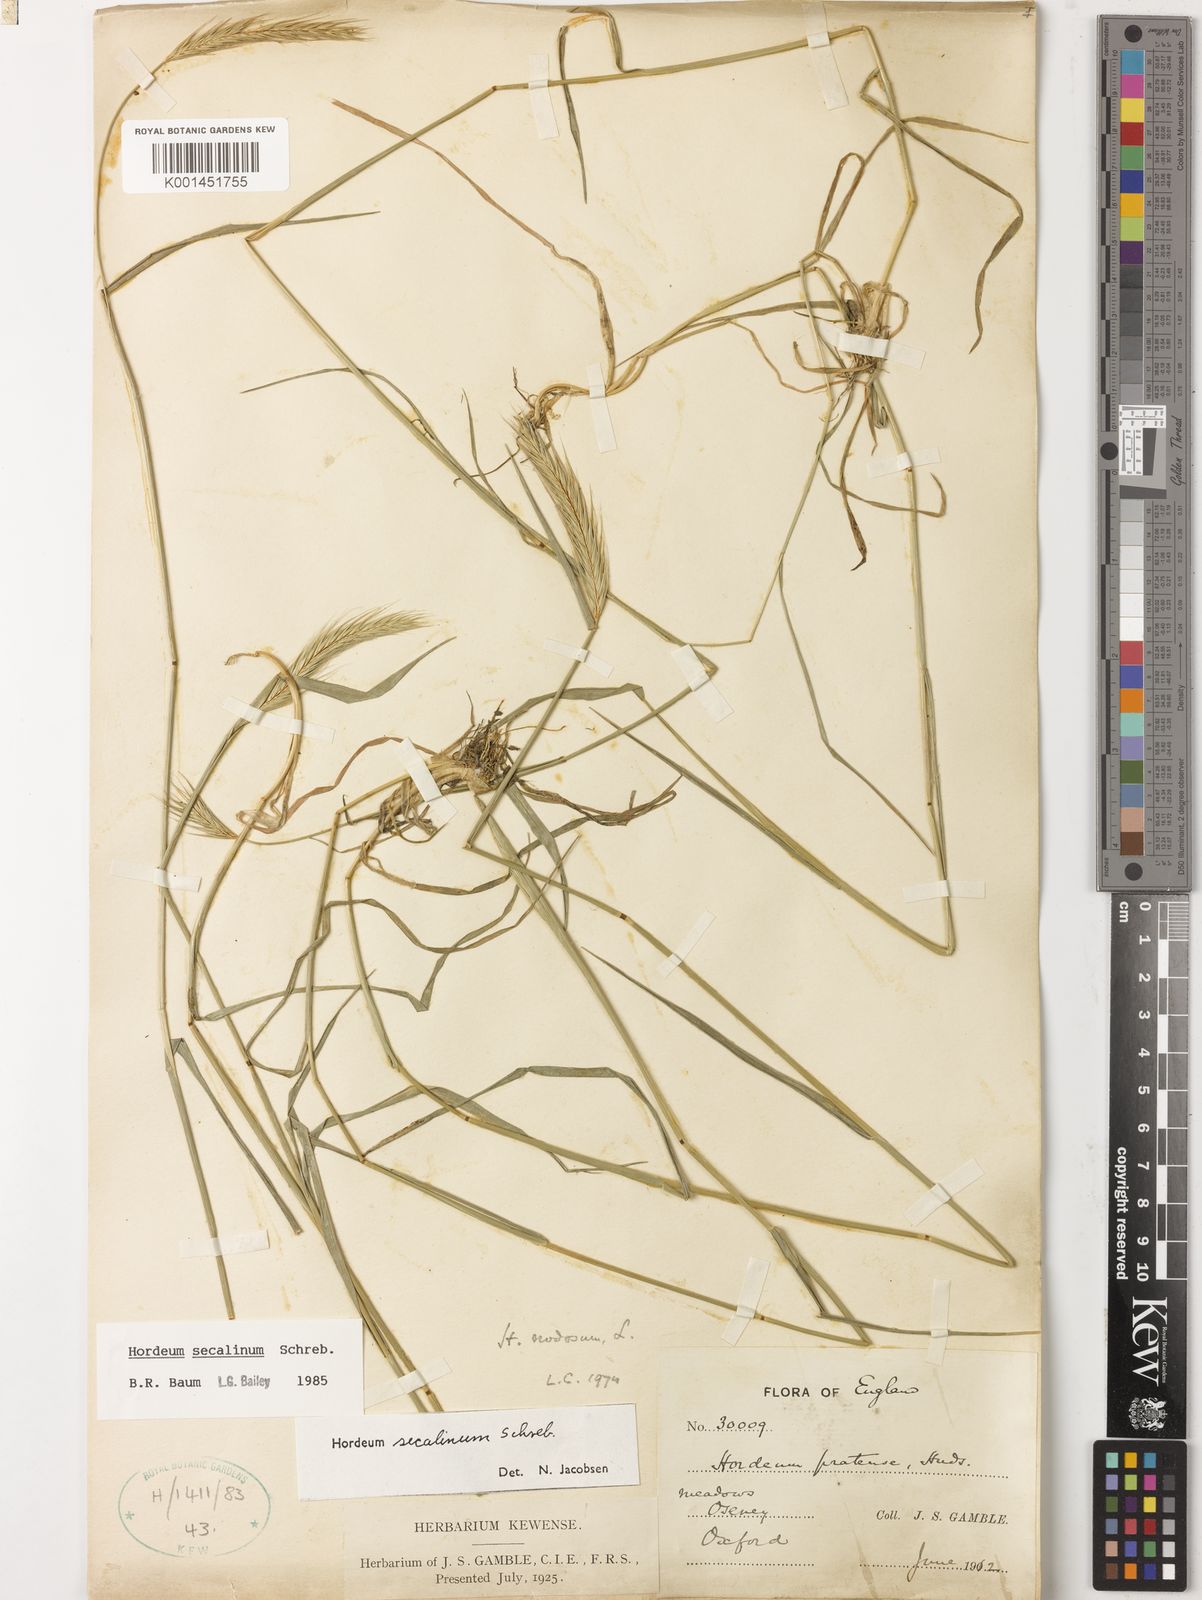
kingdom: Plantae
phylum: Tracheophyta
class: Liliopsida
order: Poales
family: Poaceae
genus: Hordeum
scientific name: Hordeum secalinum
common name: Meadow barley
